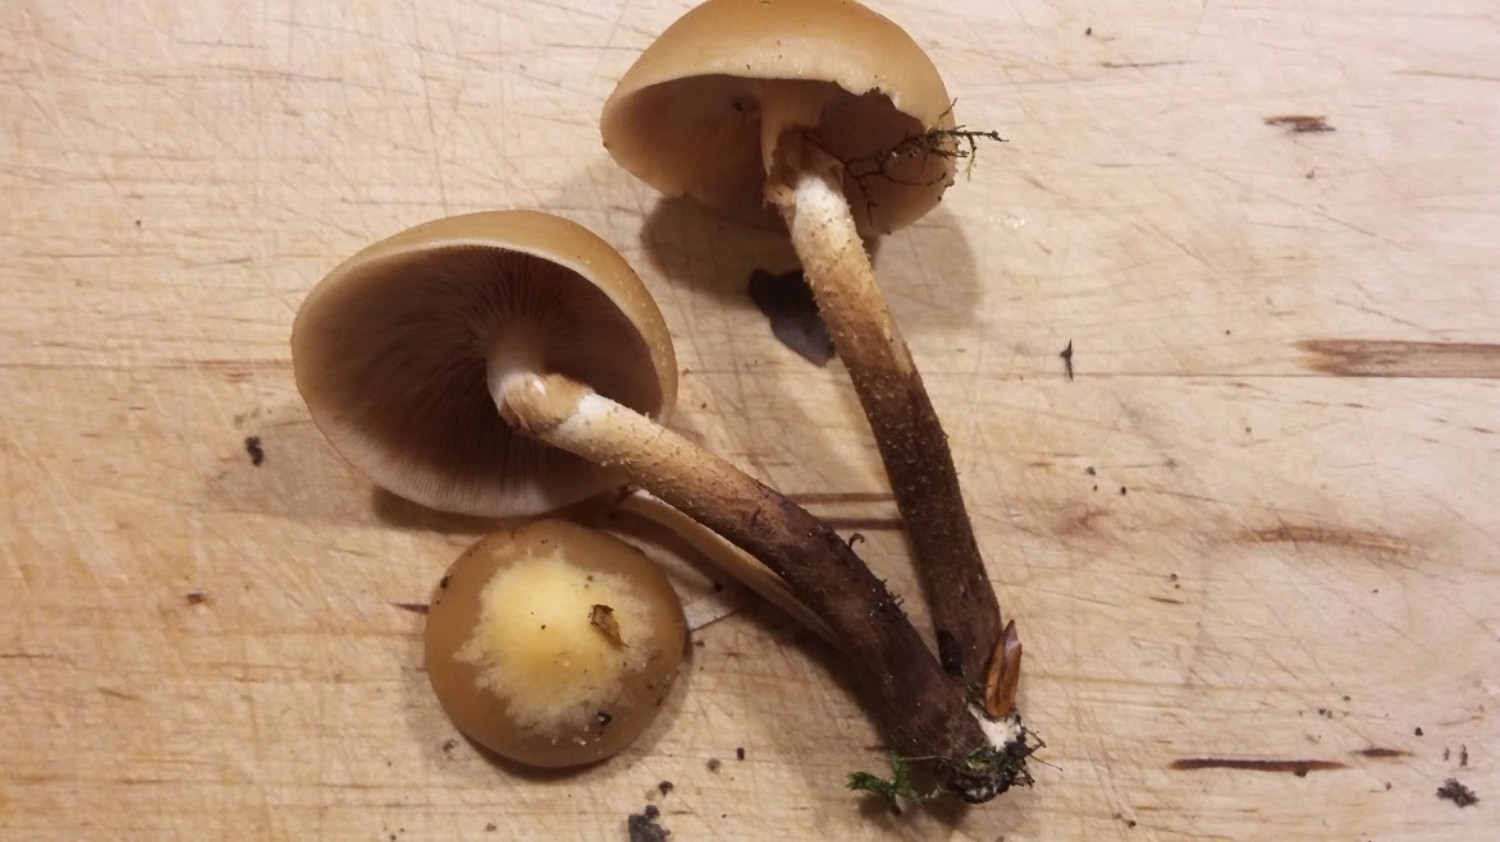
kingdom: Fungi
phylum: Basidiomycota
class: Agaricomycetes
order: Agaricales
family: Strophariaceae
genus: Kuehneromyces
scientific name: Kuehneromyces mutabilis
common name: foranderlig skælhat
